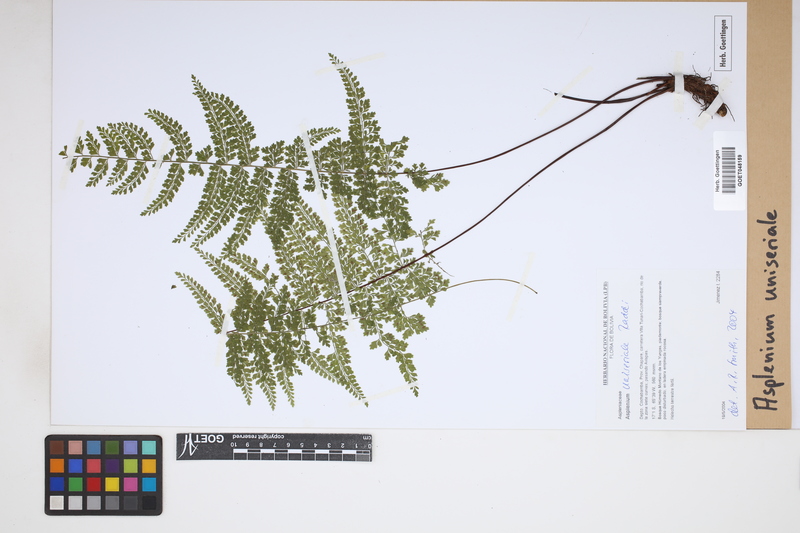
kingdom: Plantae
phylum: Tracheophyta
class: Polypodiopsida
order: Polypodiales
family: Aspleniaceae
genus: Asplenium
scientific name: Asplenium uniseriale
